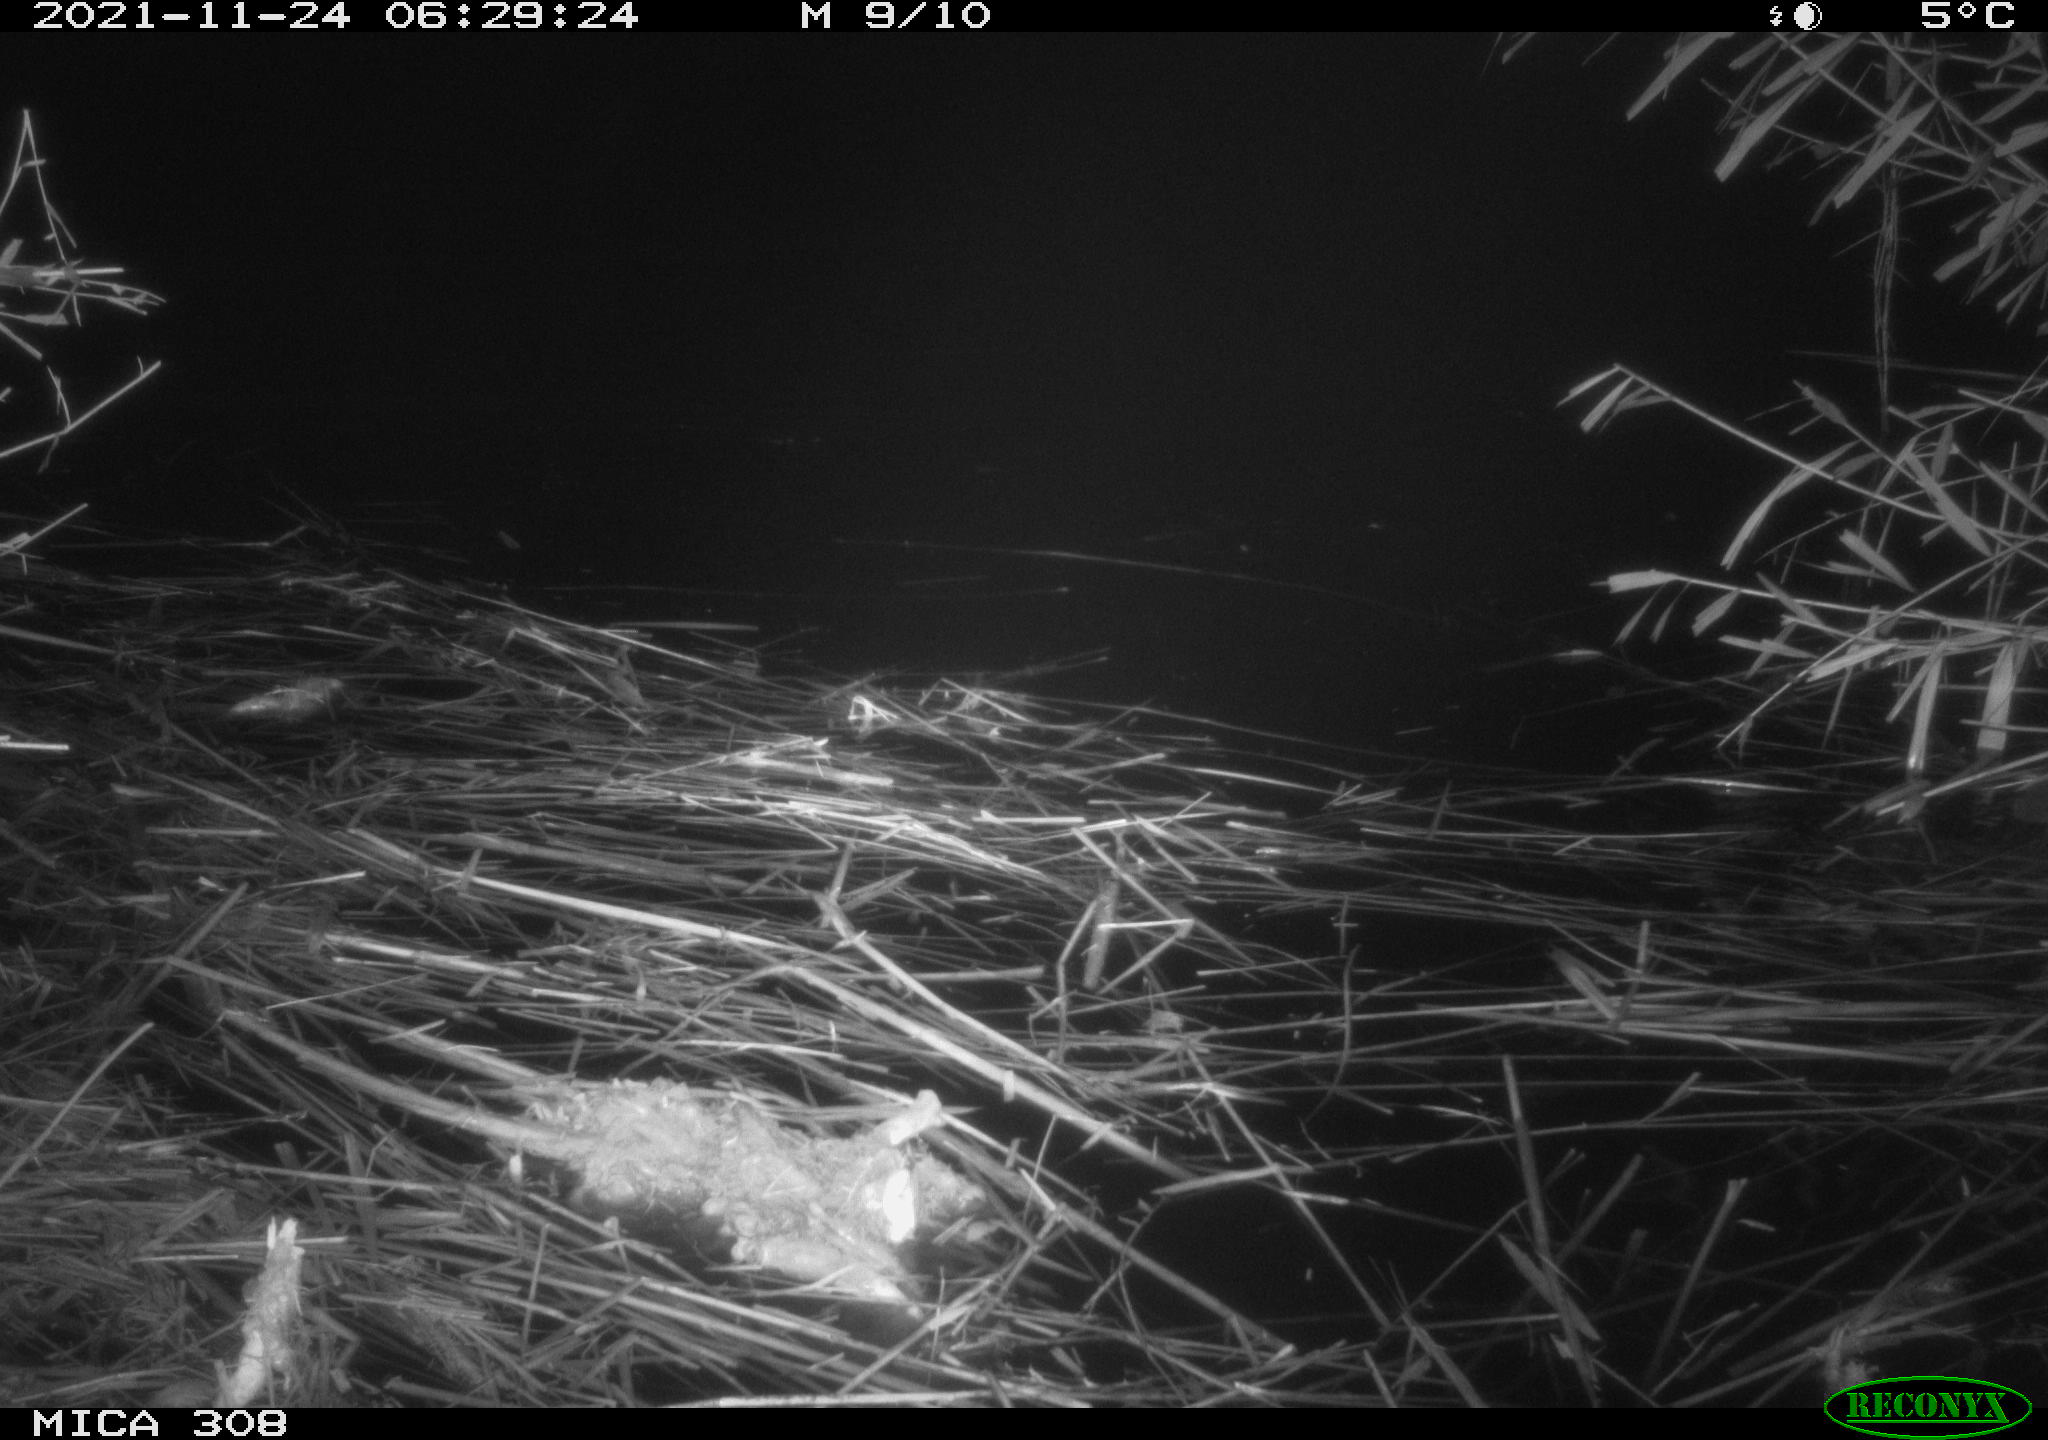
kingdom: Animalia
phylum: Chordata
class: Mammalia
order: Rodentia
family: Muridae
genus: Rattus
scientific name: Rattus norvegicus
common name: Brown rat
